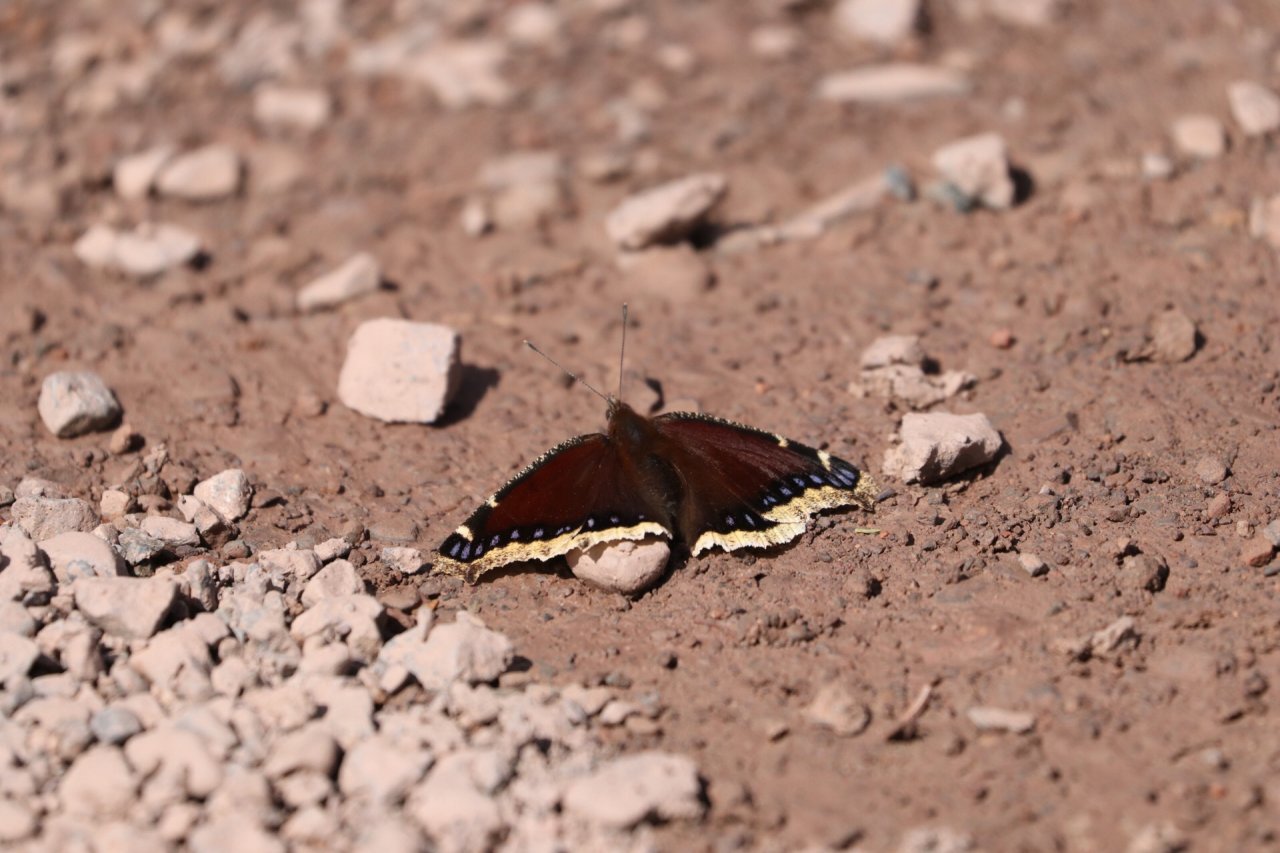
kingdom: Animalia
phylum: Arthropoda
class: Insecta
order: Lepidoptera
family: Nymphalidae
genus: Nymphalis
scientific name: Nymphalis antiopa
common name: Mourning Cloak
